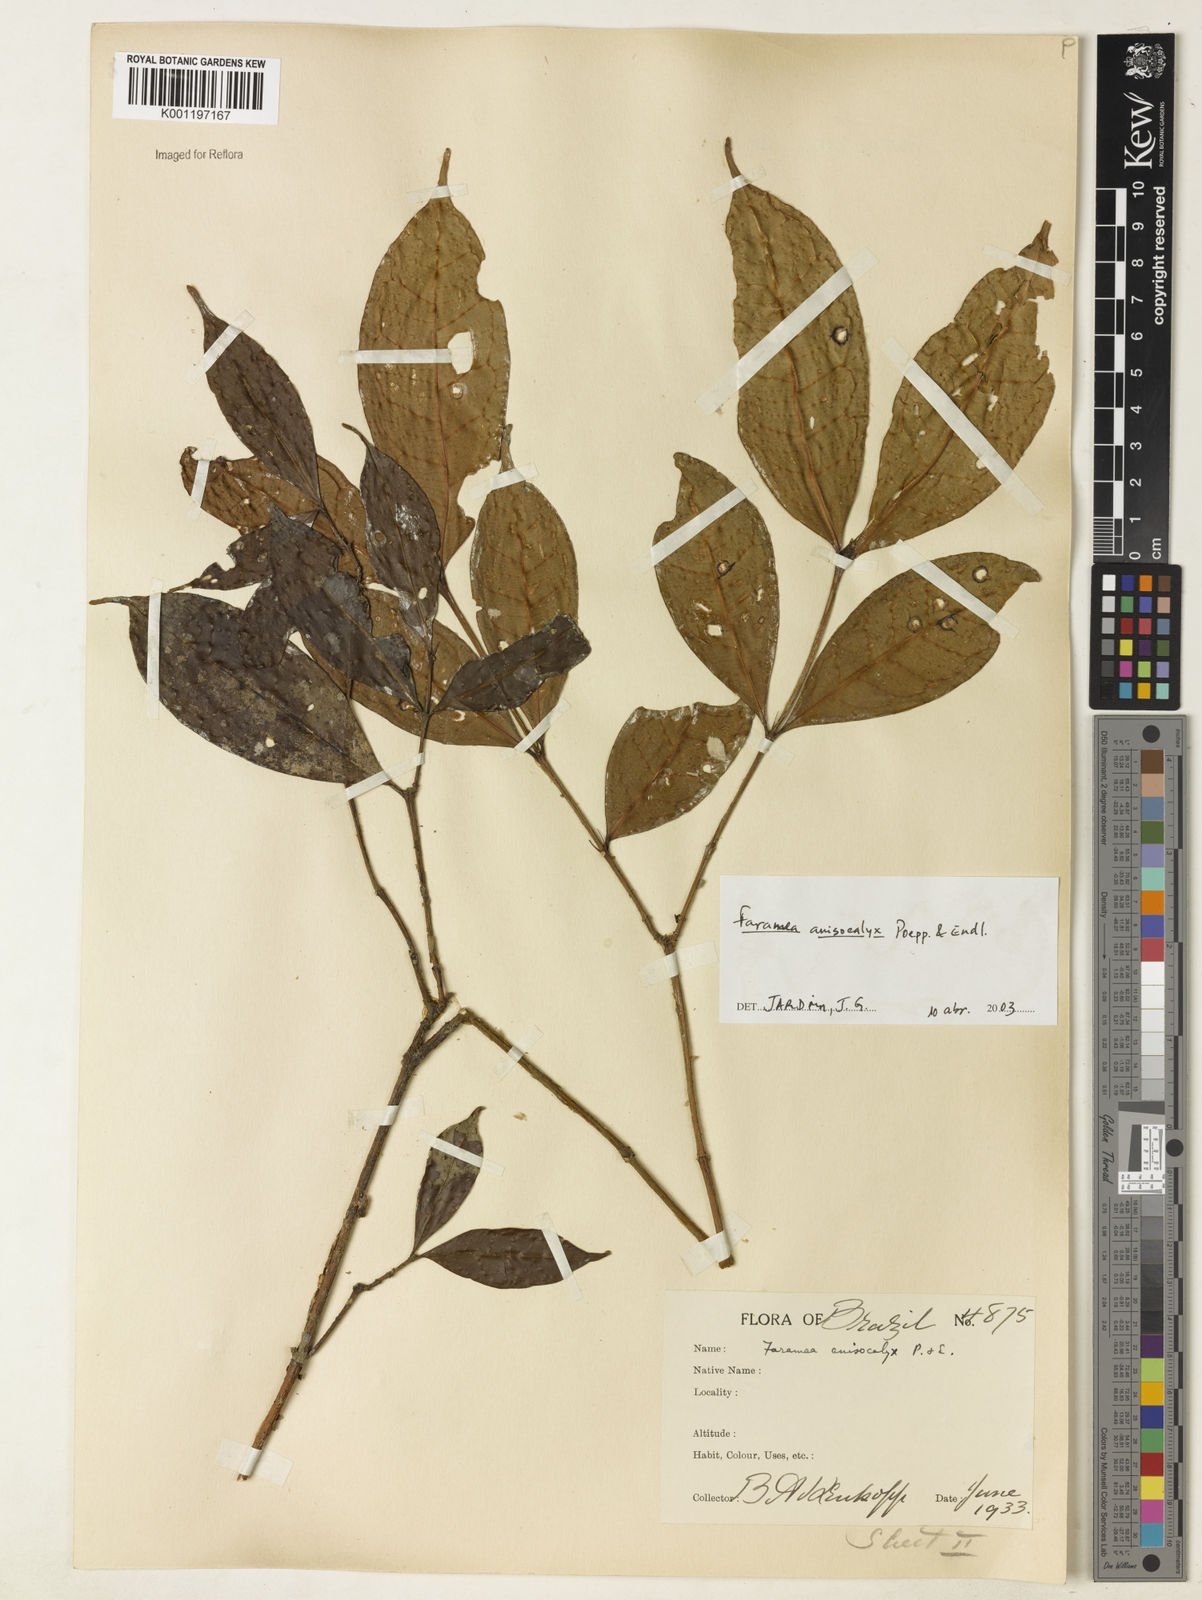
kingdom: Plantae
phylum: Tracheophyta
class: Magnoliopsida
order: Gentianales
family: Rubiaceae
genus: Faramea
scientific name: Faramea anisocalyx
